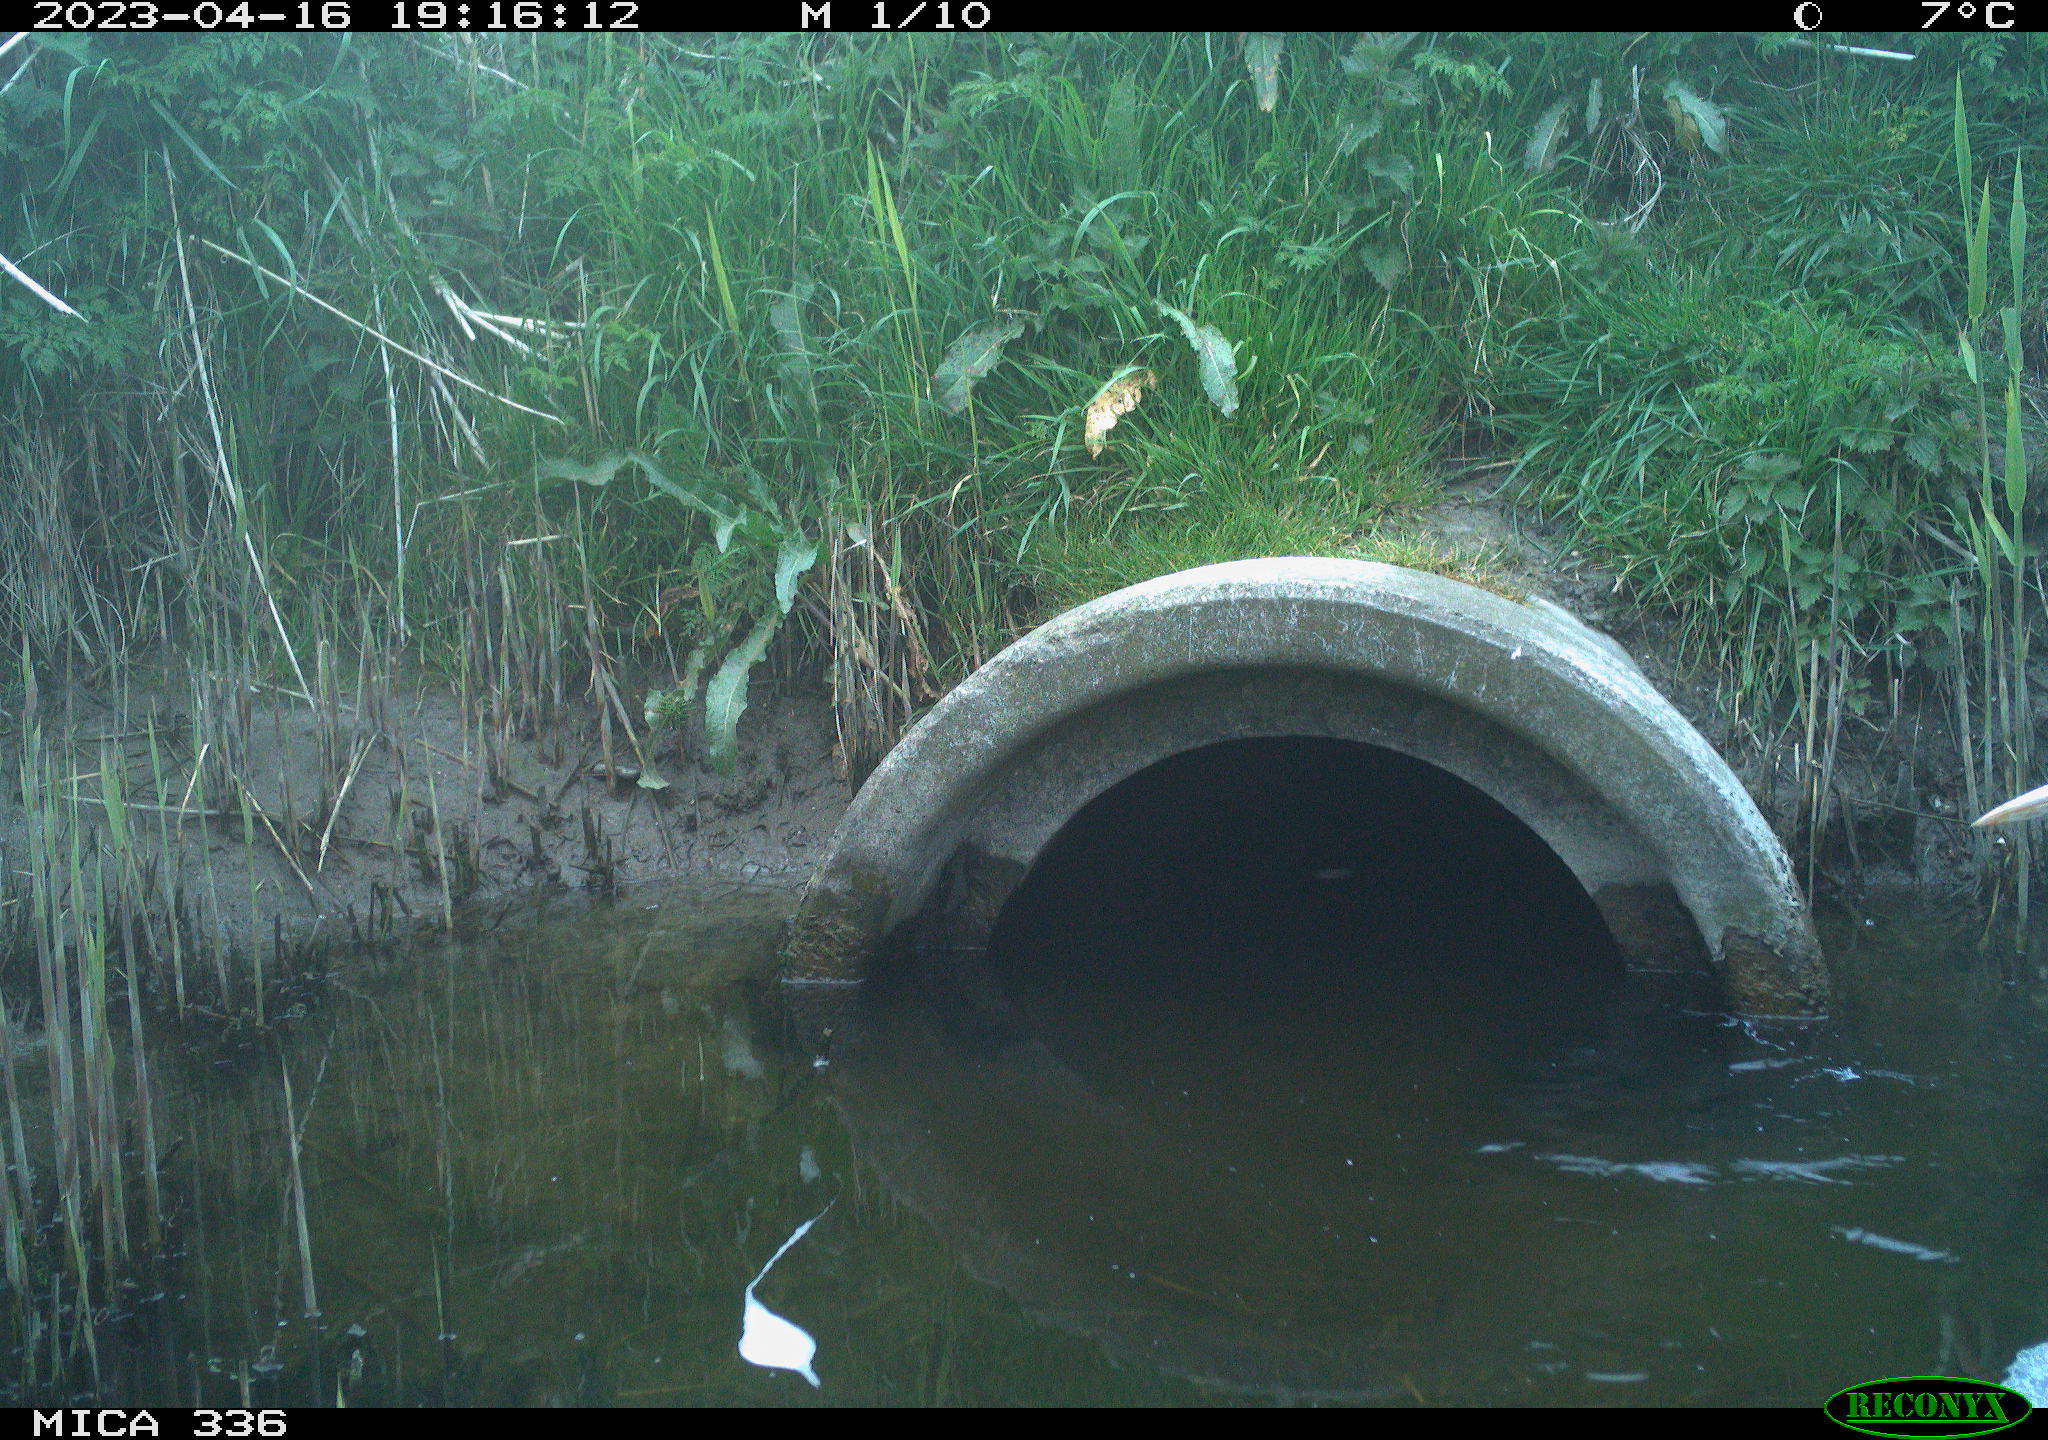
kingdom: Animalia
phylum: Chordata
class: Aves
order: Pelecaniformes
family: Ardeidae
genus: Ardea
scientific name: Ardea cinerea
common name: Grey heron
